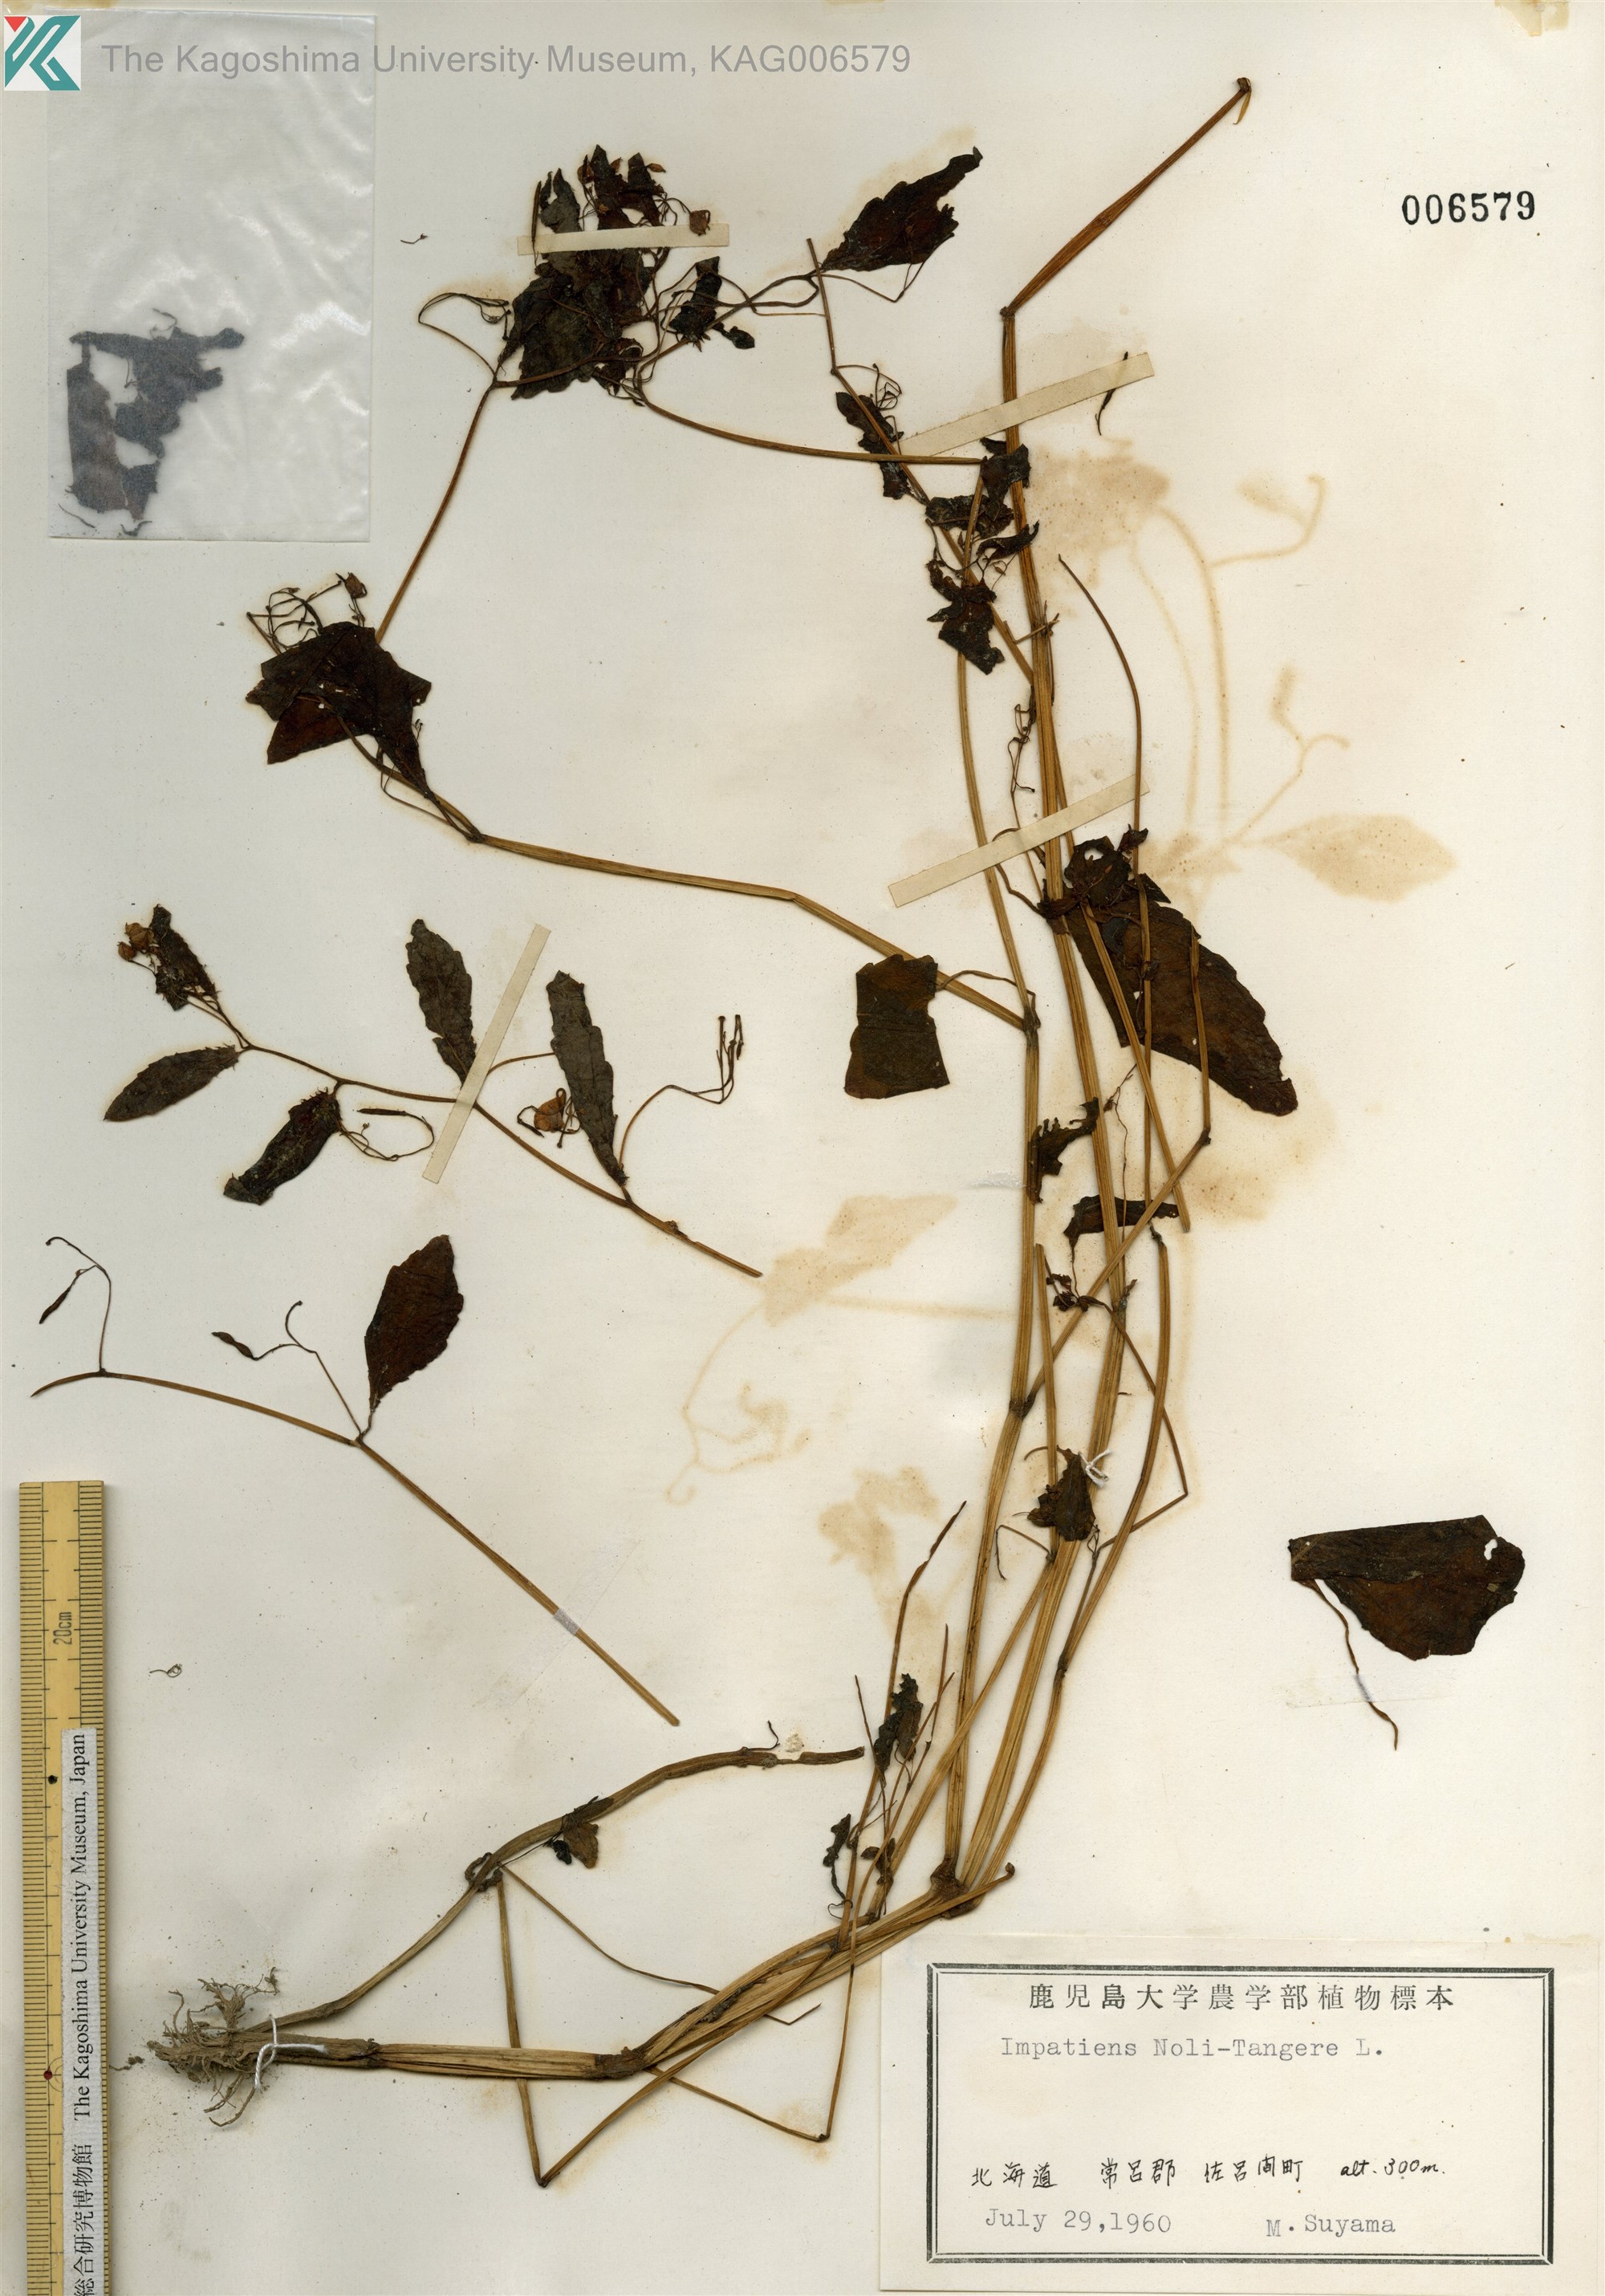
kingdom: Plantae
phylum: Tracheophyta
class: Magnoliopsida
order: Ericales
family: Balsaminaceae
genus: Impatiens
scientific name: Impatiens noli-tangere
